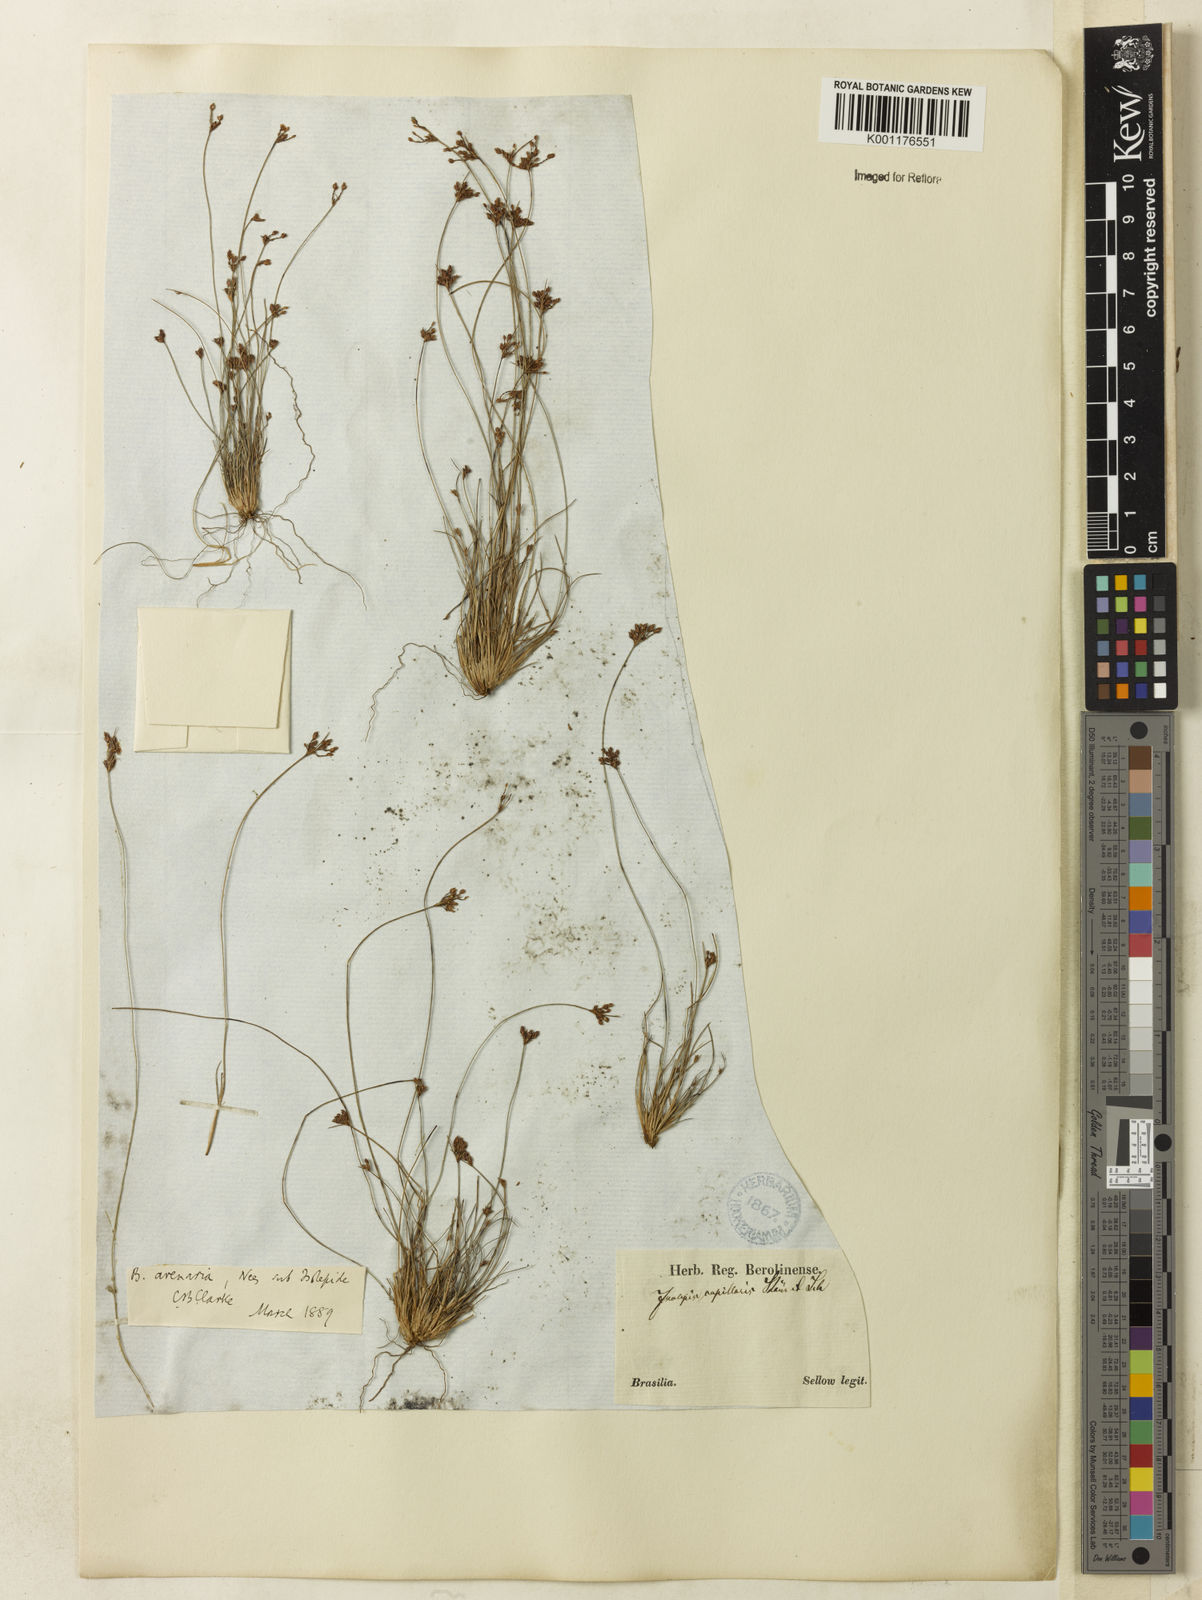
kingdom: Plantae
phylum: Tracheophyta
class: Liliopsida
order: Poales
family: Cyperaceae
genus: Bulbostylis
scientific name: Bulbostylis juncoides
